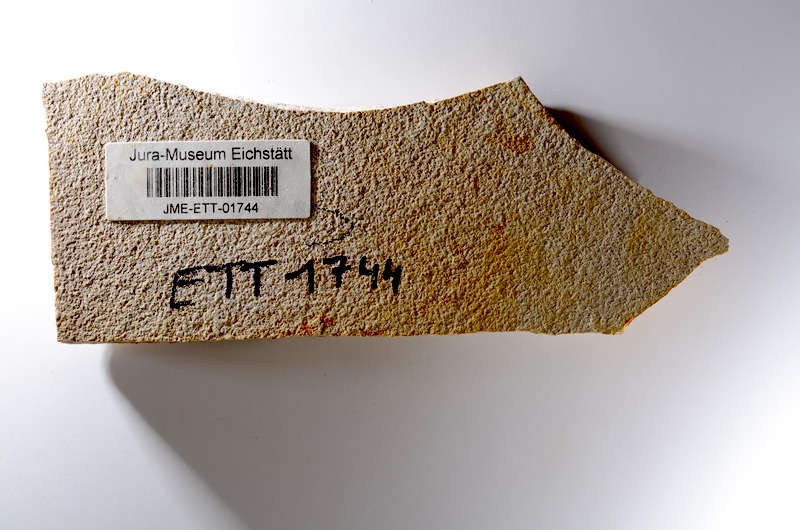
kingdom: Animalia
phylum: Chordata
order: Salmoniformes
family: Orthogonikleithridae
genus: Orthogonikleithrus
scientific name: Orthogonikleithrus hoelli
